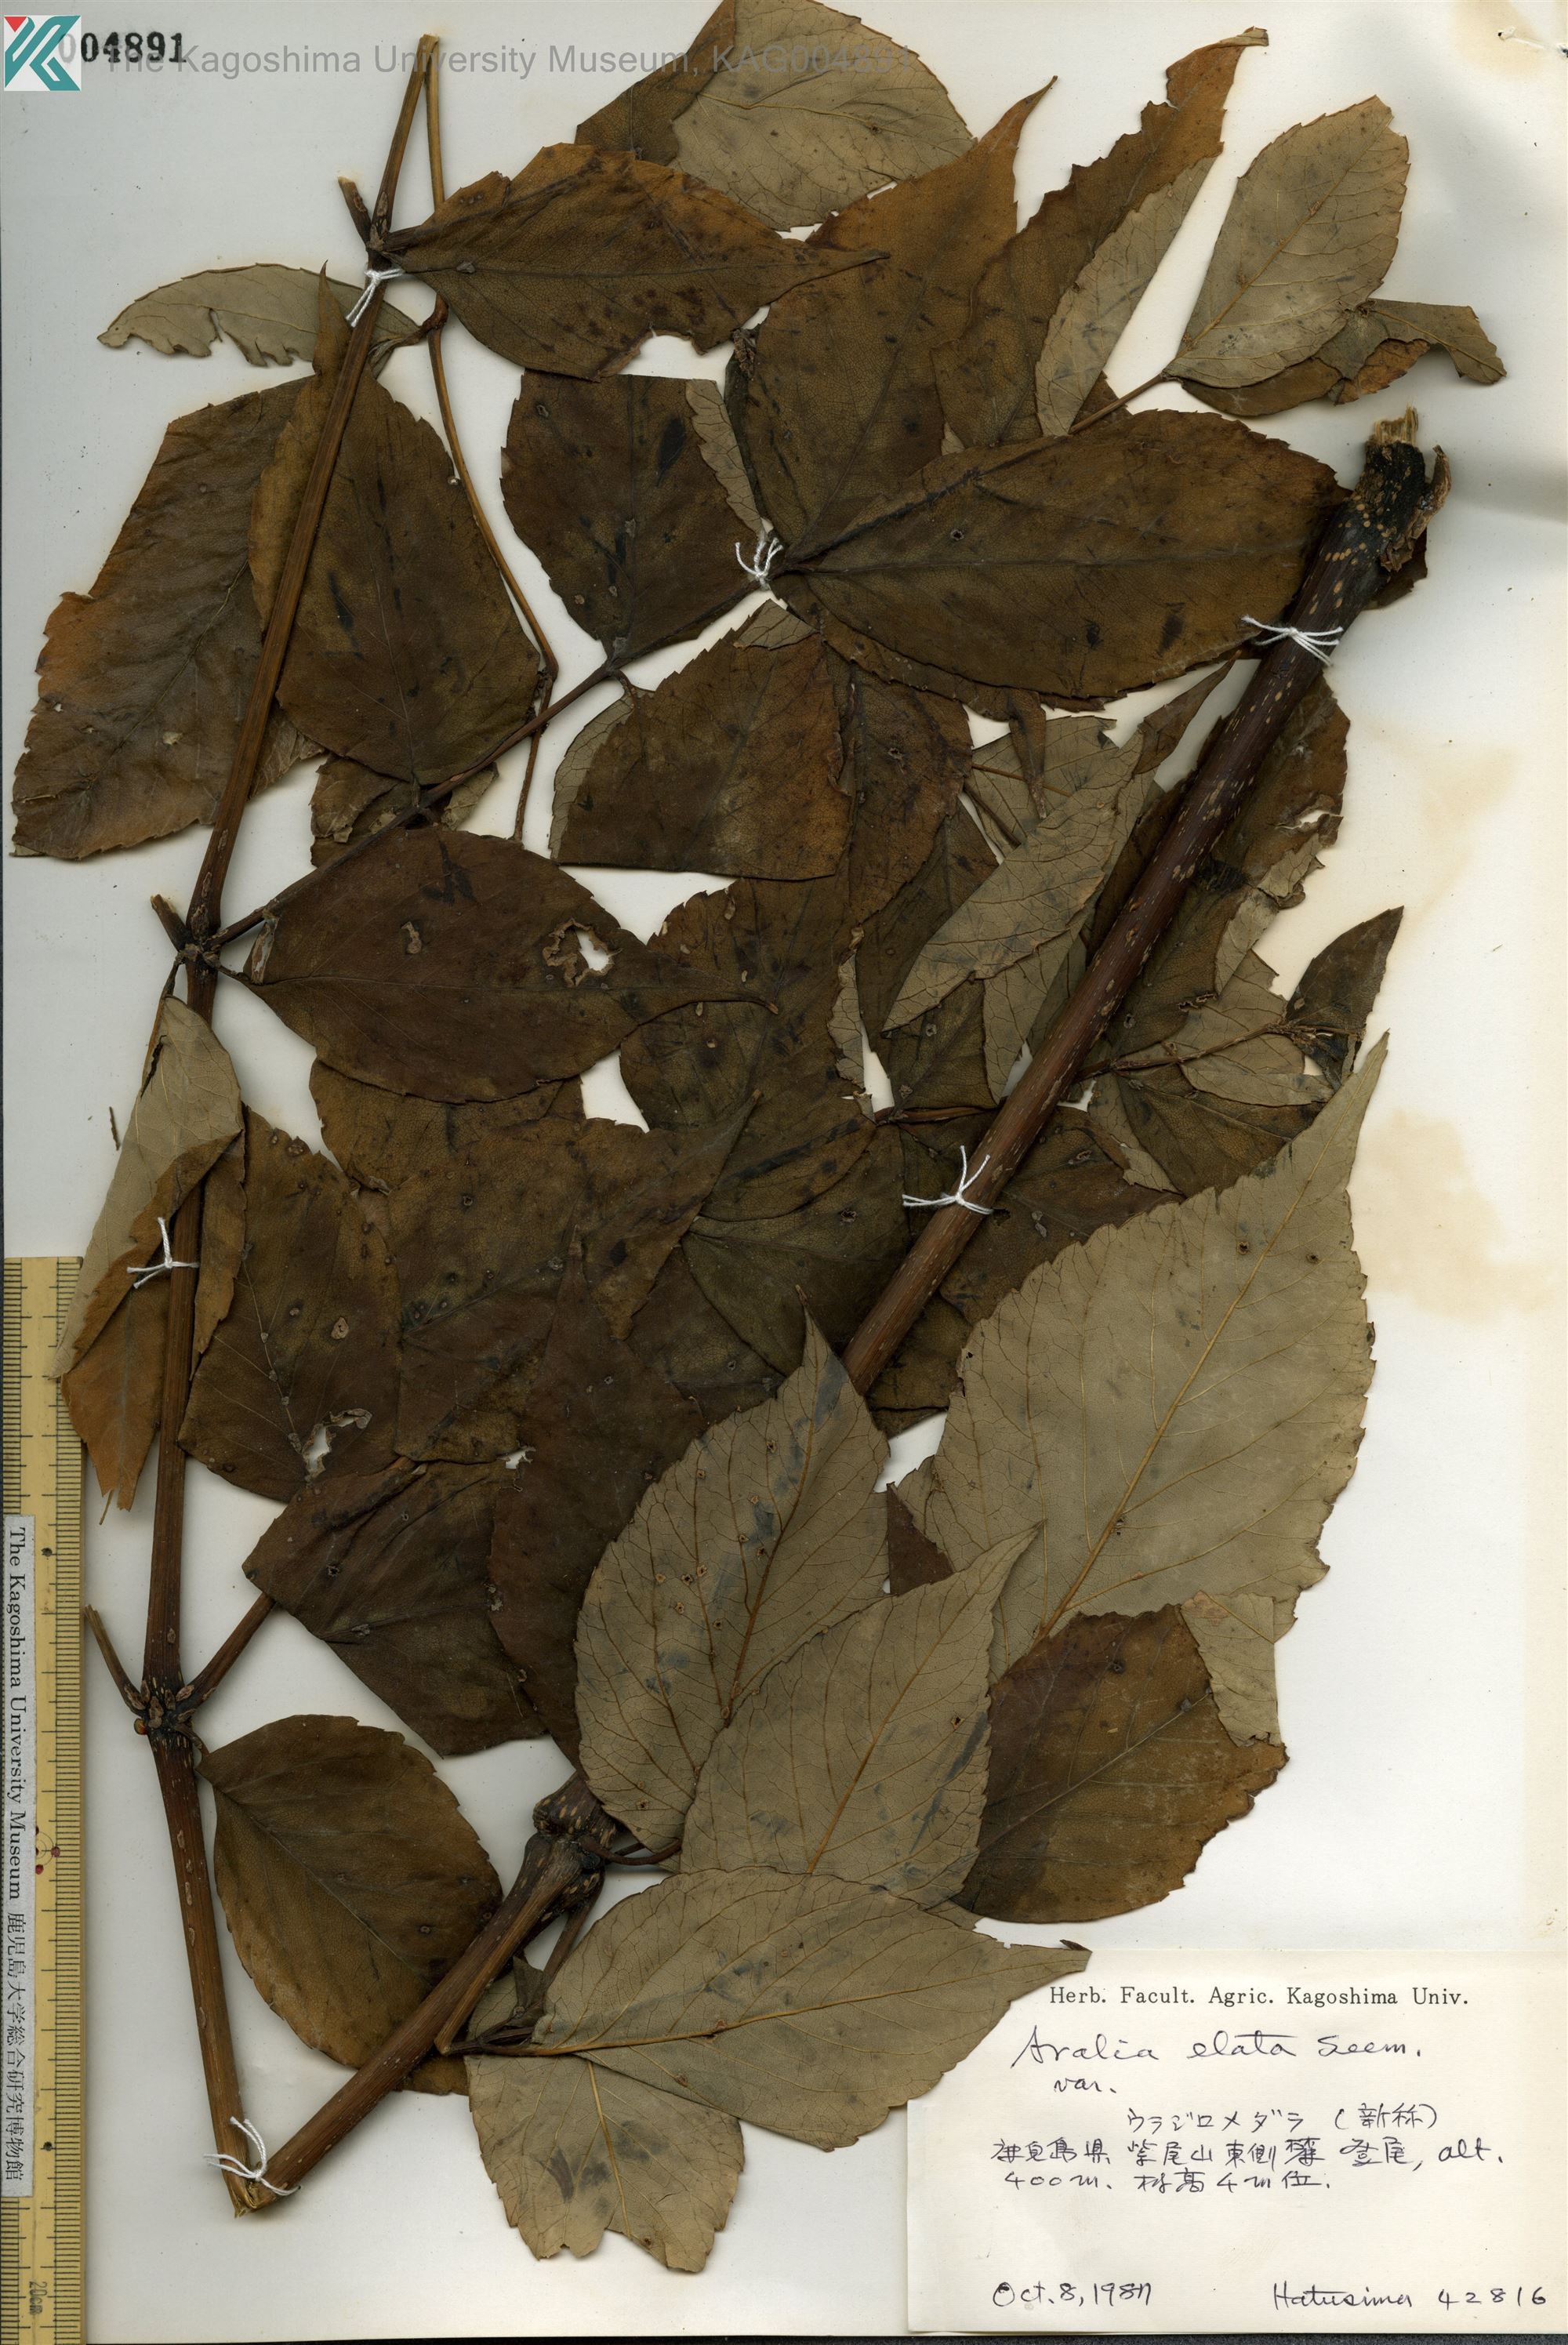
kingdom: Plantae
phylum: Tracheophyta
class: Magnoliopsida
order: Apiales
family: Araliaceae
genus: Aralia
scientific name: Aralia elata
